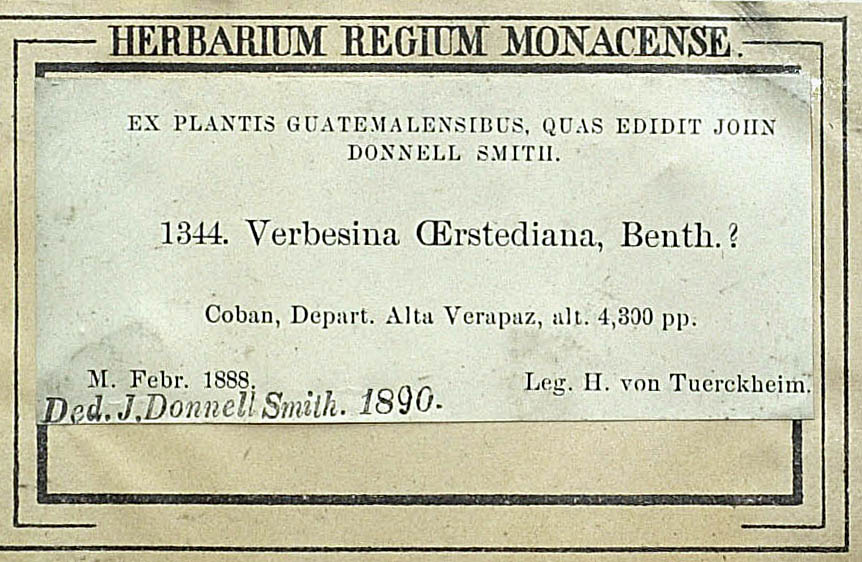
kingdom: Plantae
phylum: Tracheophyta
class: Magnoliopsida
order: Asterales
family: Asteraceae
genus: Verbesina
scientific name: Verbesina lanata
